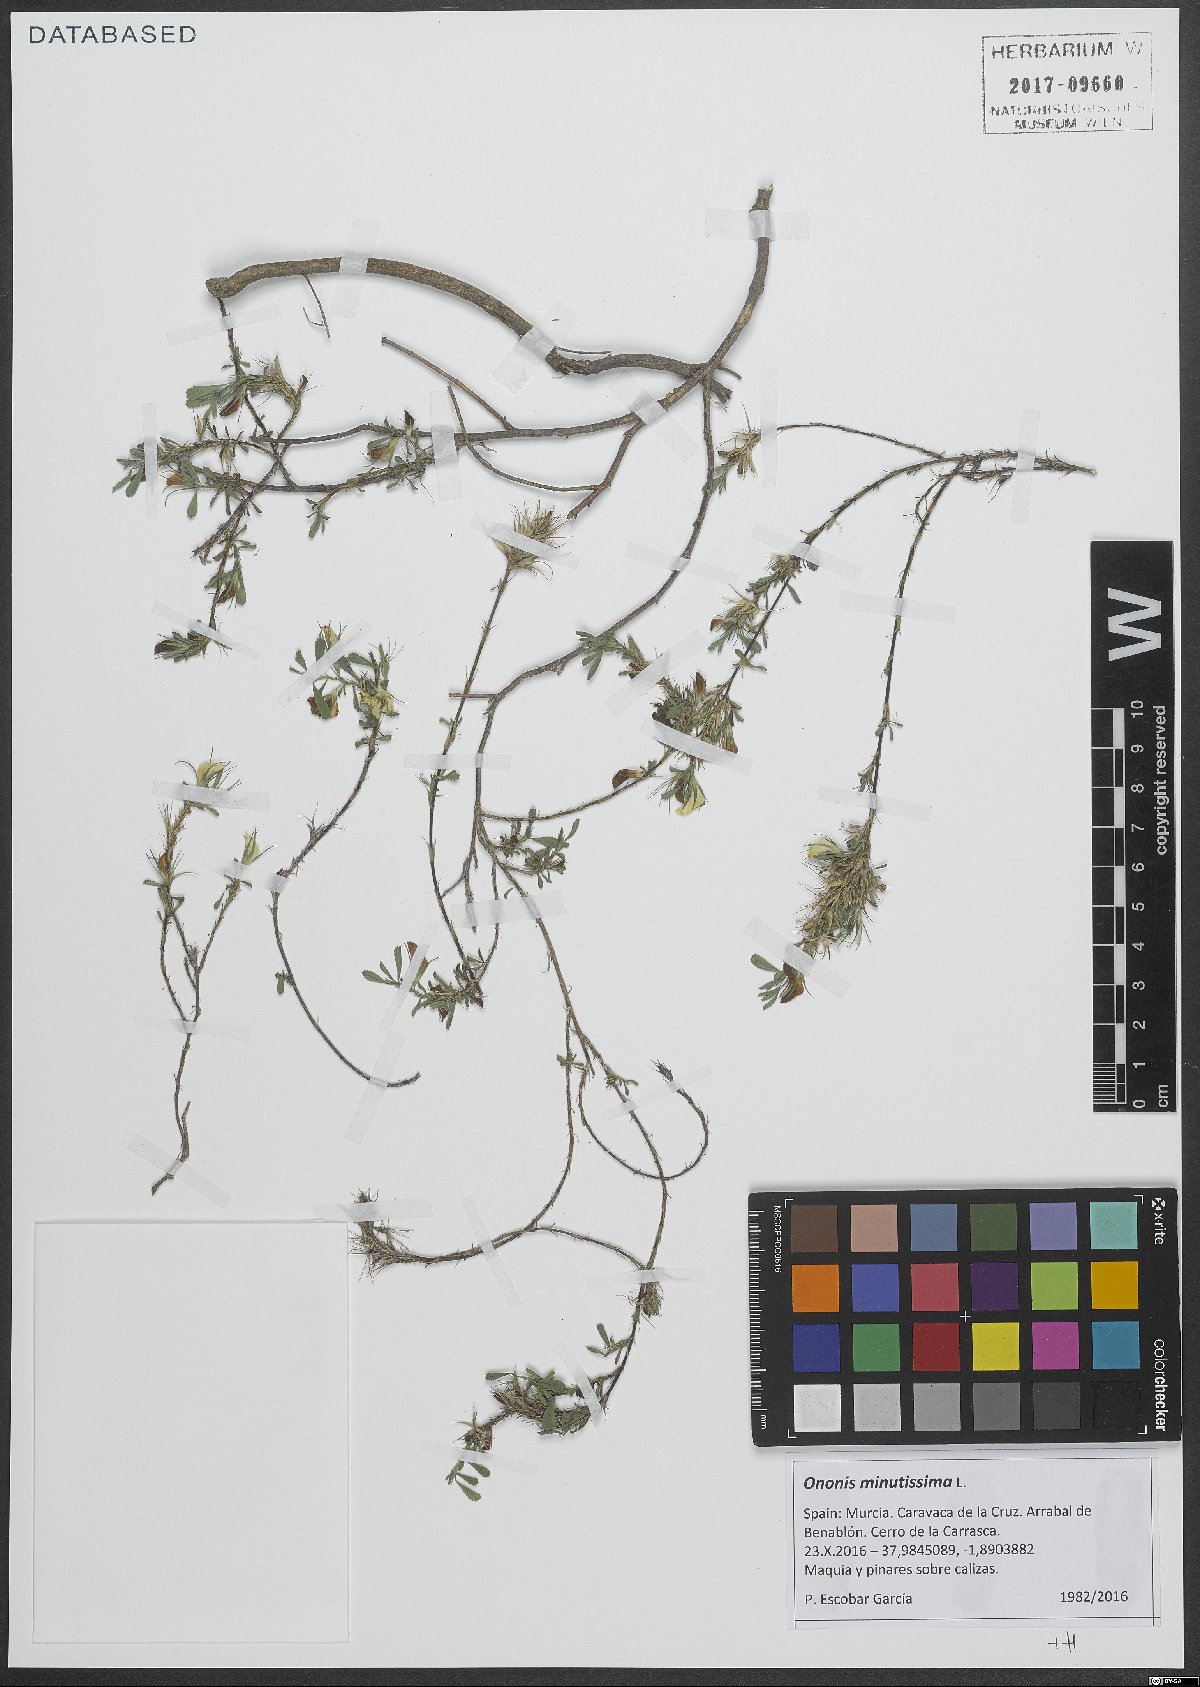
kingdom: Plantae
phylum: Tracheophyta
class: Magnoliopsida
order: Fabales
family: Fabaceae
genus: Ononis
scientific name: Ononis minutissima
